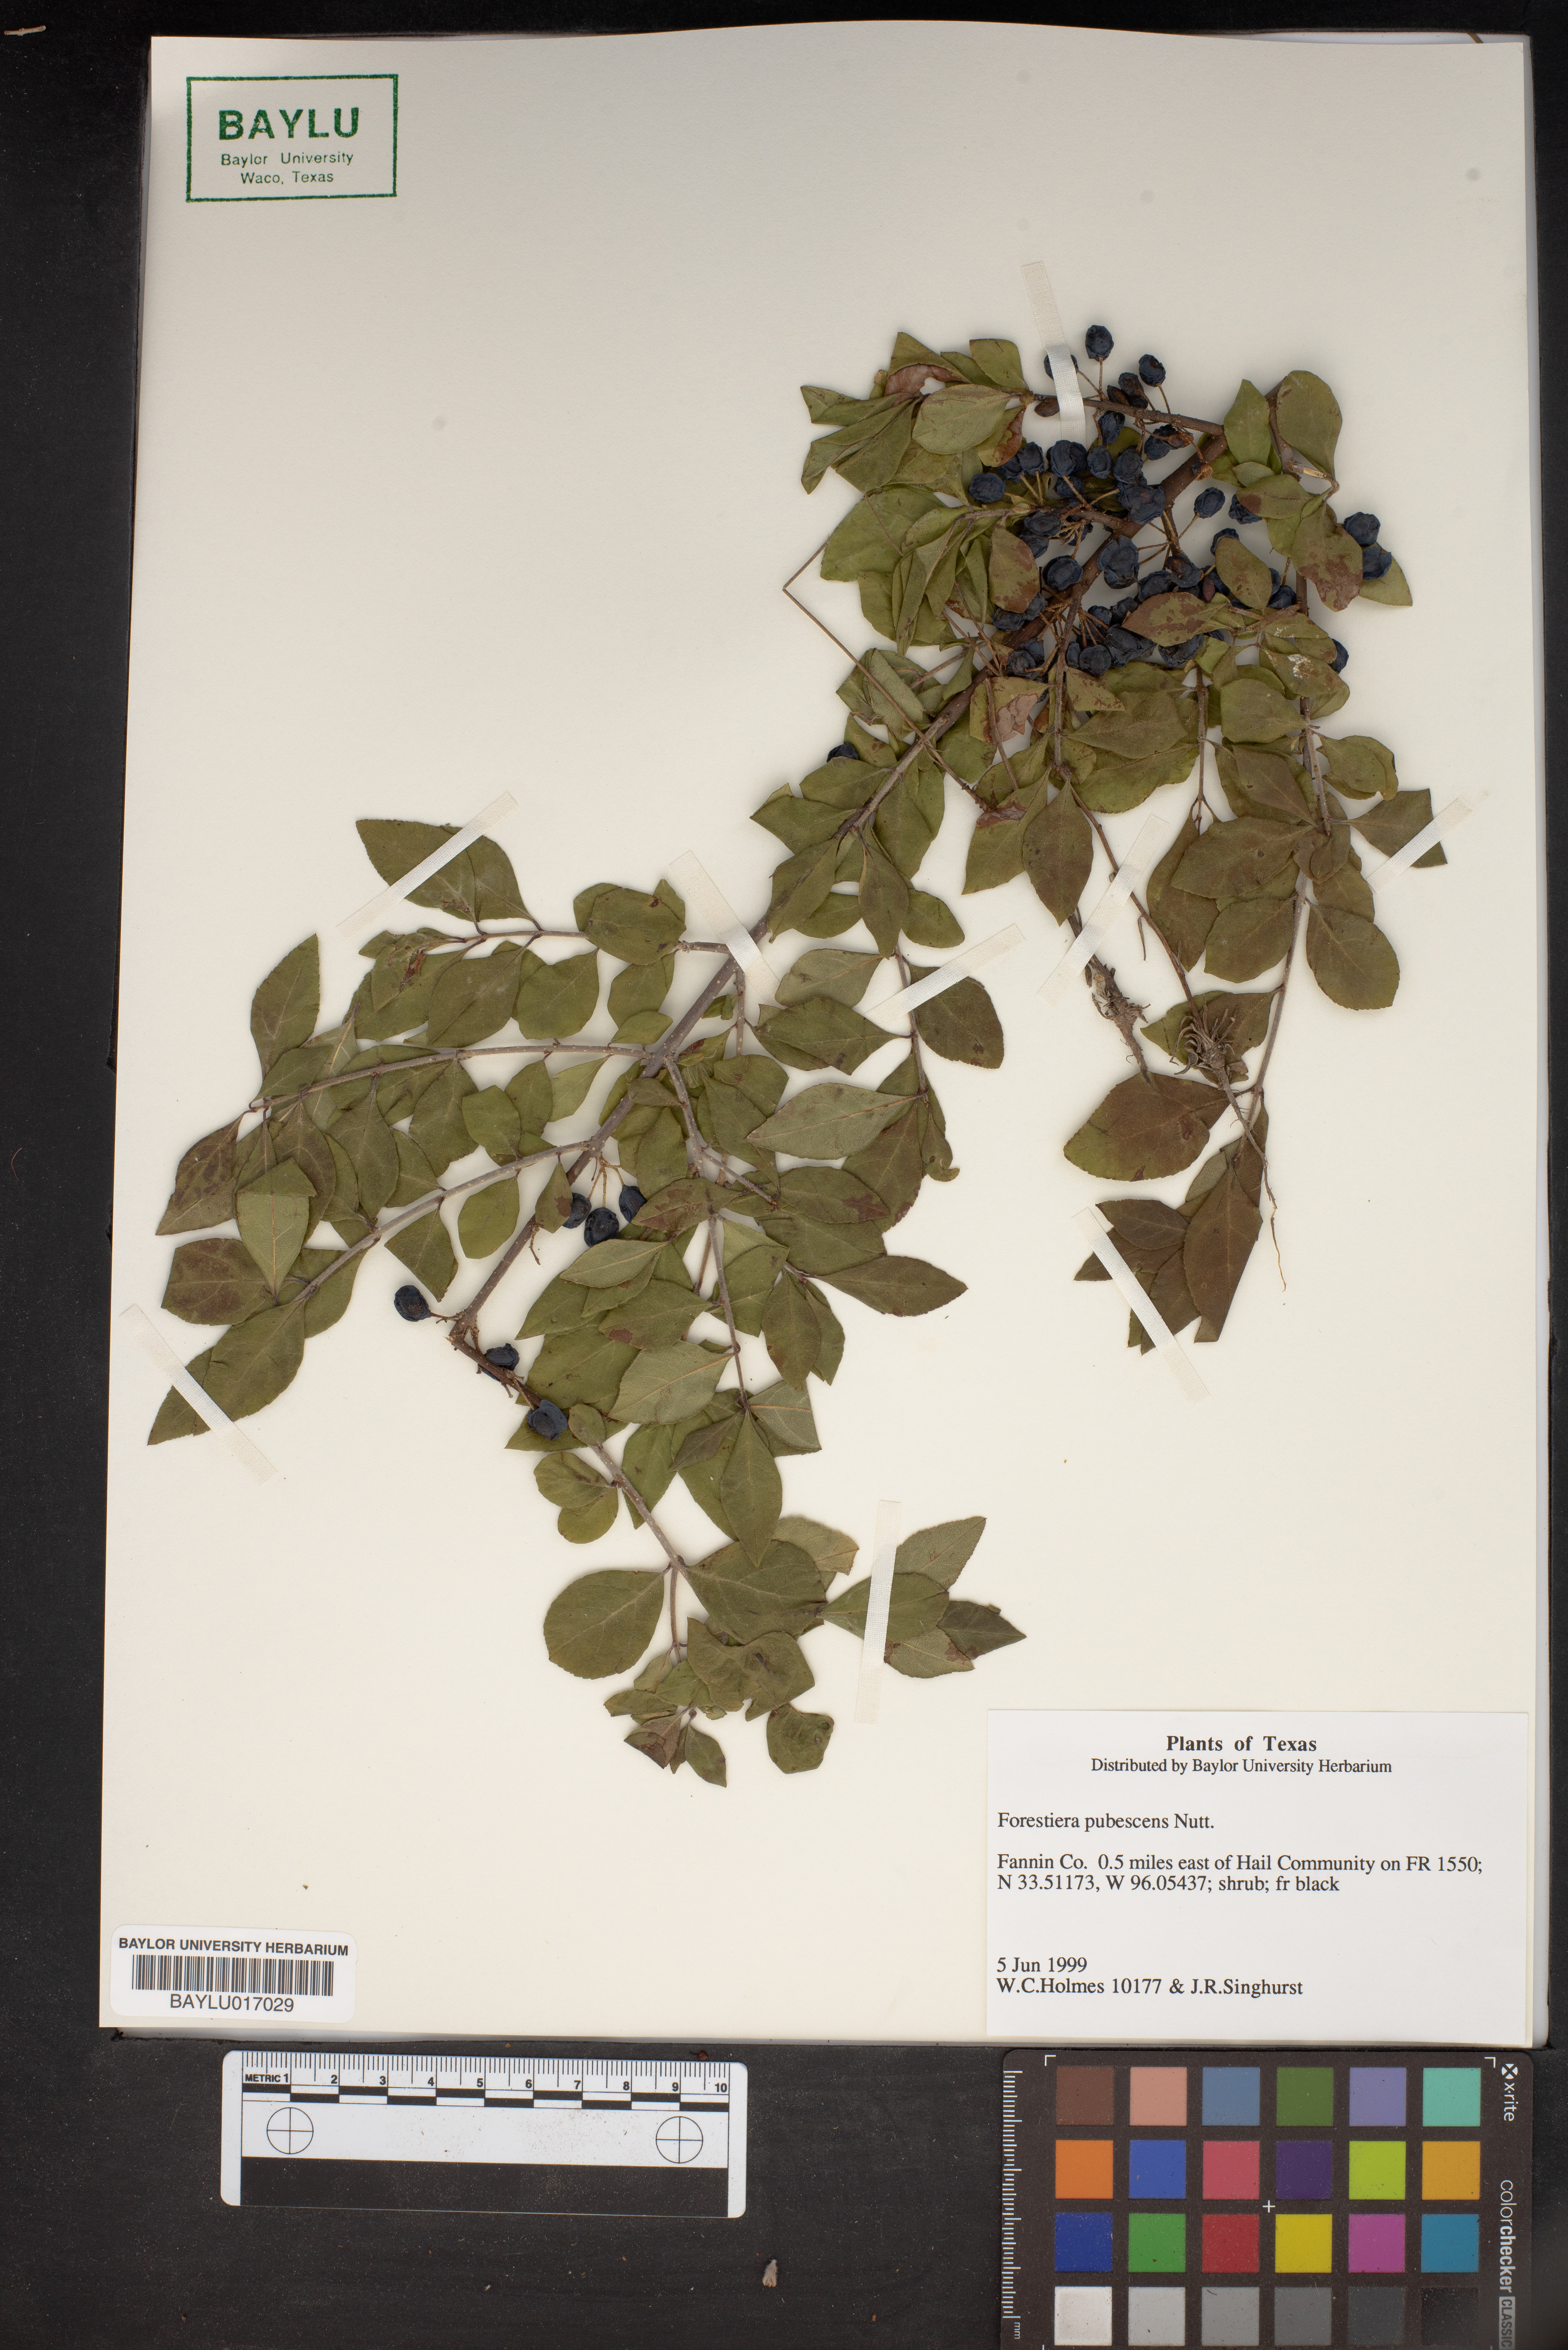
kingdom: Plantae
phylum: Tracheophyta
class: Magnoliopsida
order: Lamiales
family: Oleaceae
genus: Forestiera
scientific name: Forestiera pubescens
